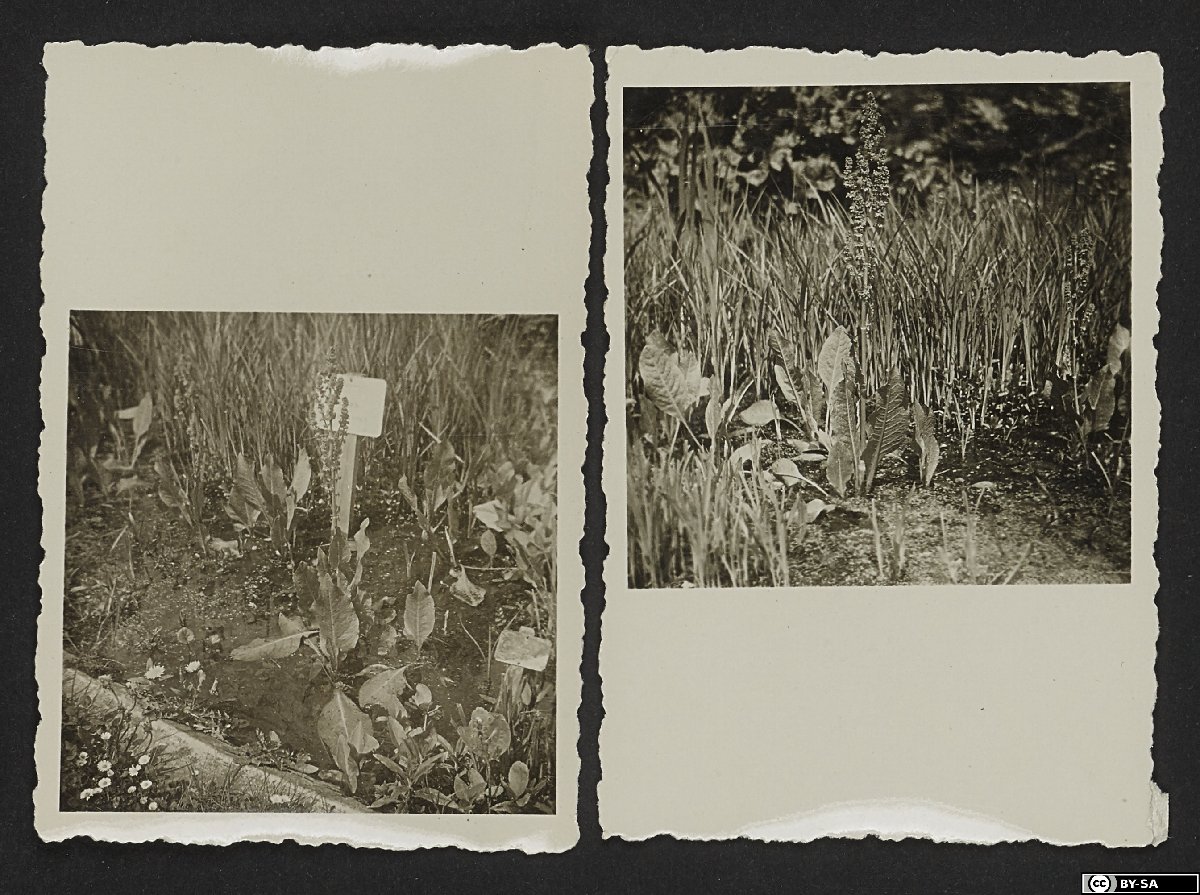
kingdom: Plantae
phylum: Tracheophyta
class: Magnoliopsida
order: Caryophyllales
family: Polygonaceae
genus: Rumex
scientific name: Rumex balcanicus
